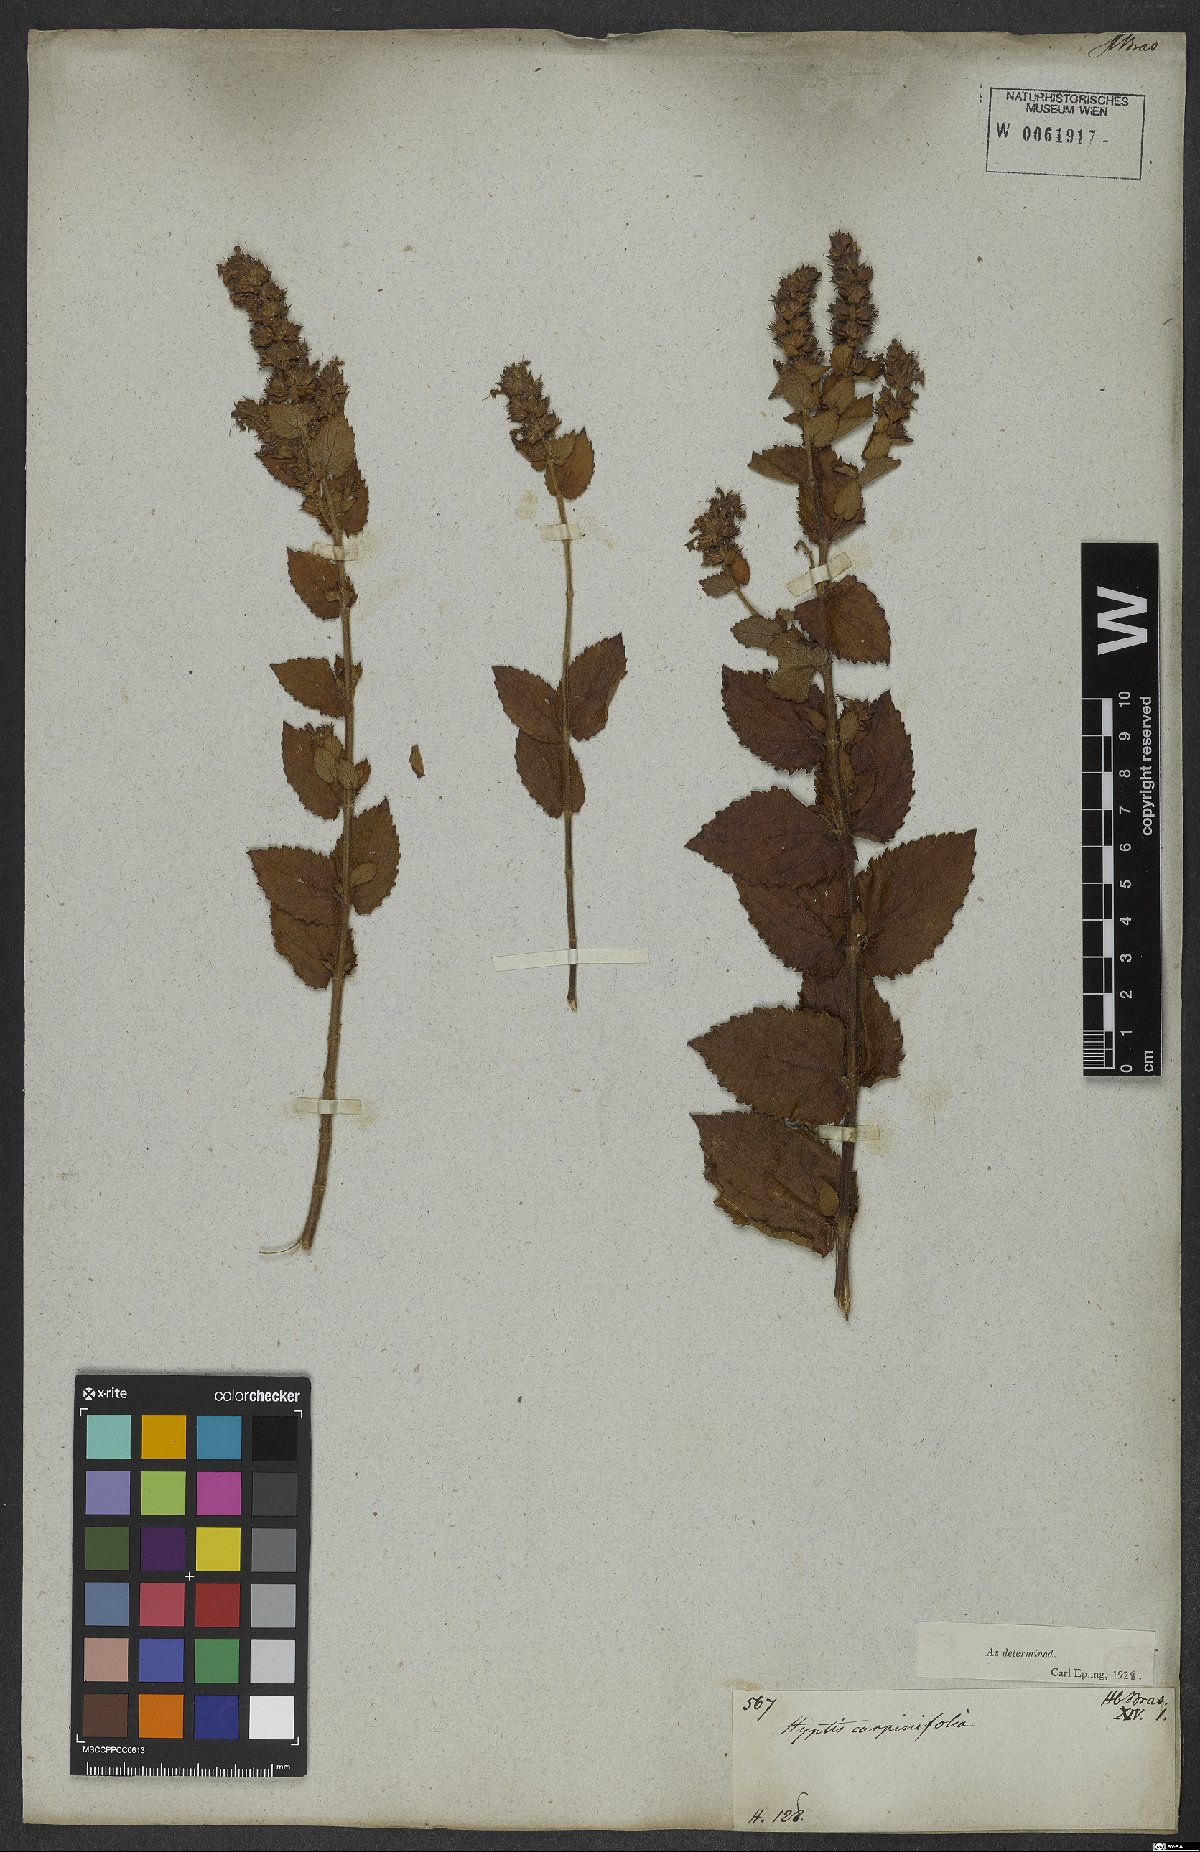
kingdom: Plantae
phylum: Tracheophyta
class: Magnoliopsida
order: Lamiales
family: Lamiaceae
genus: Cantinoa
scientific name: Cantinoa carpinifolia
